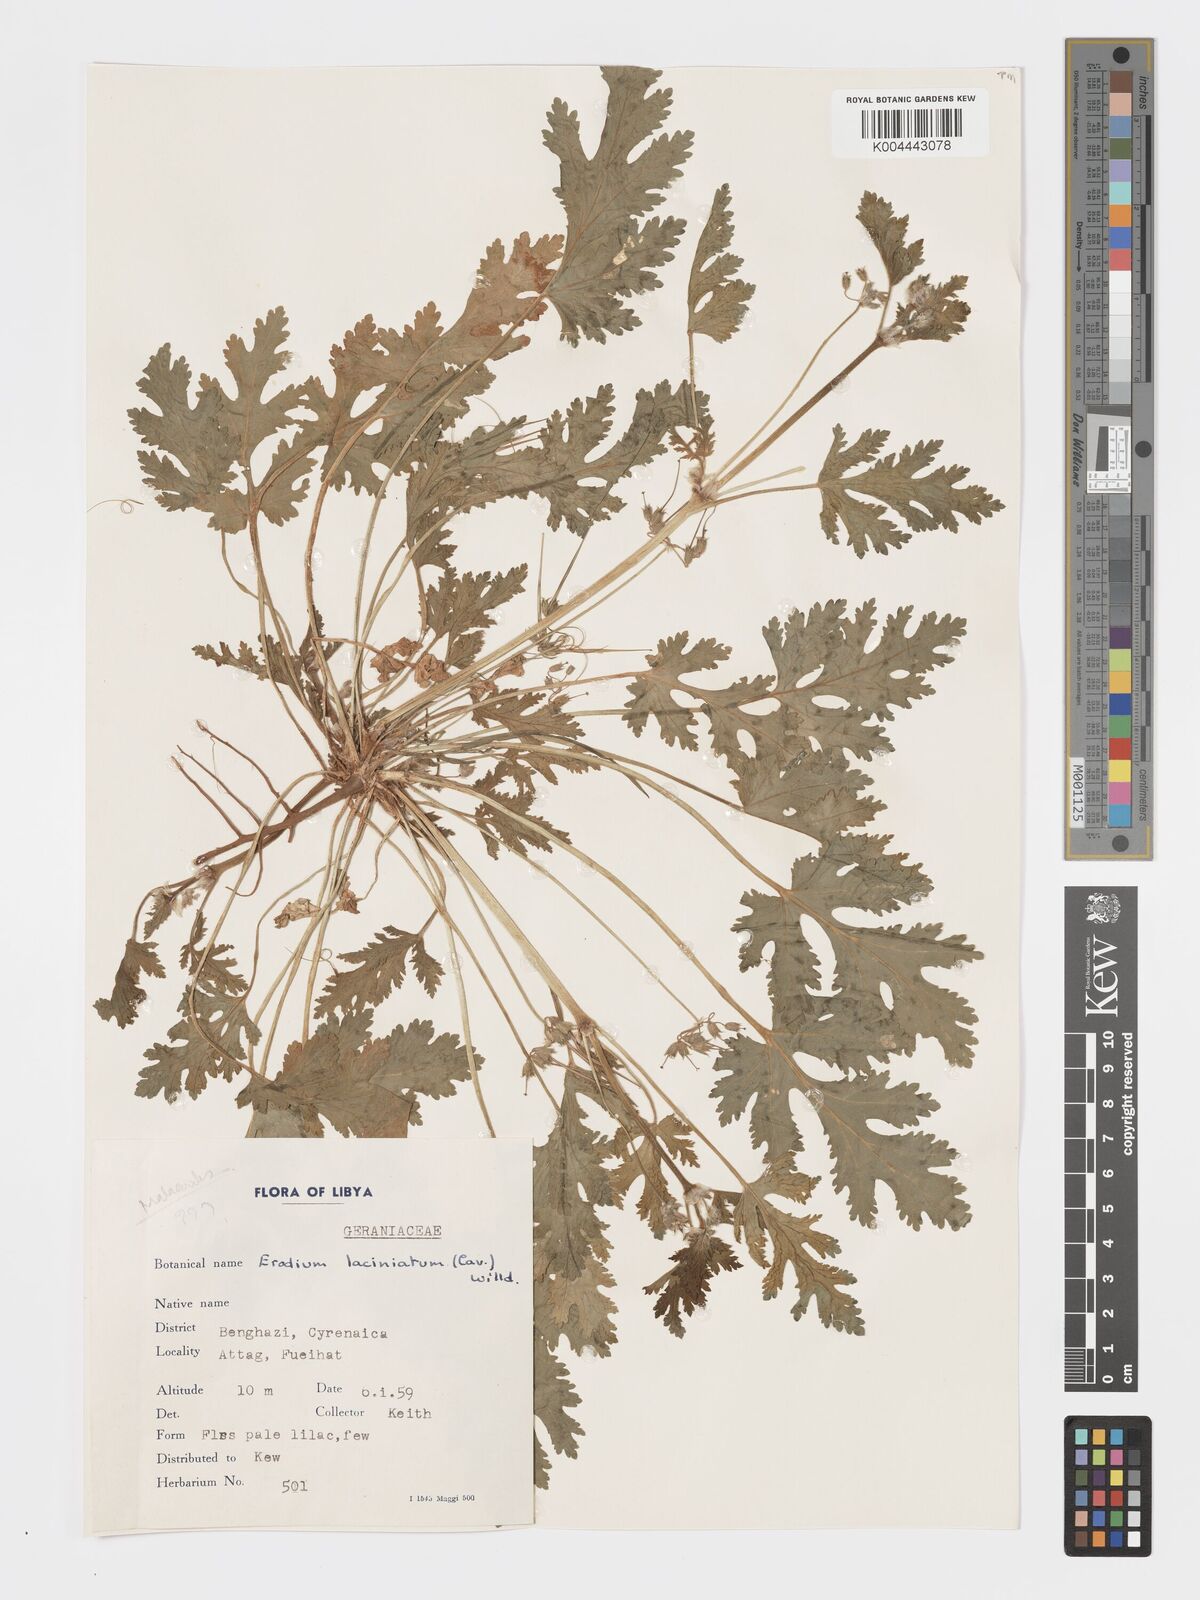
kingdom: Plantae
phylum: Tracheophyta
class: Magnoliopsida
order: Geraniales
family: Geraniaceae
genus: Erodium
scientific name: Erodium laciniatum
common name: Cutleaf stork's bill
